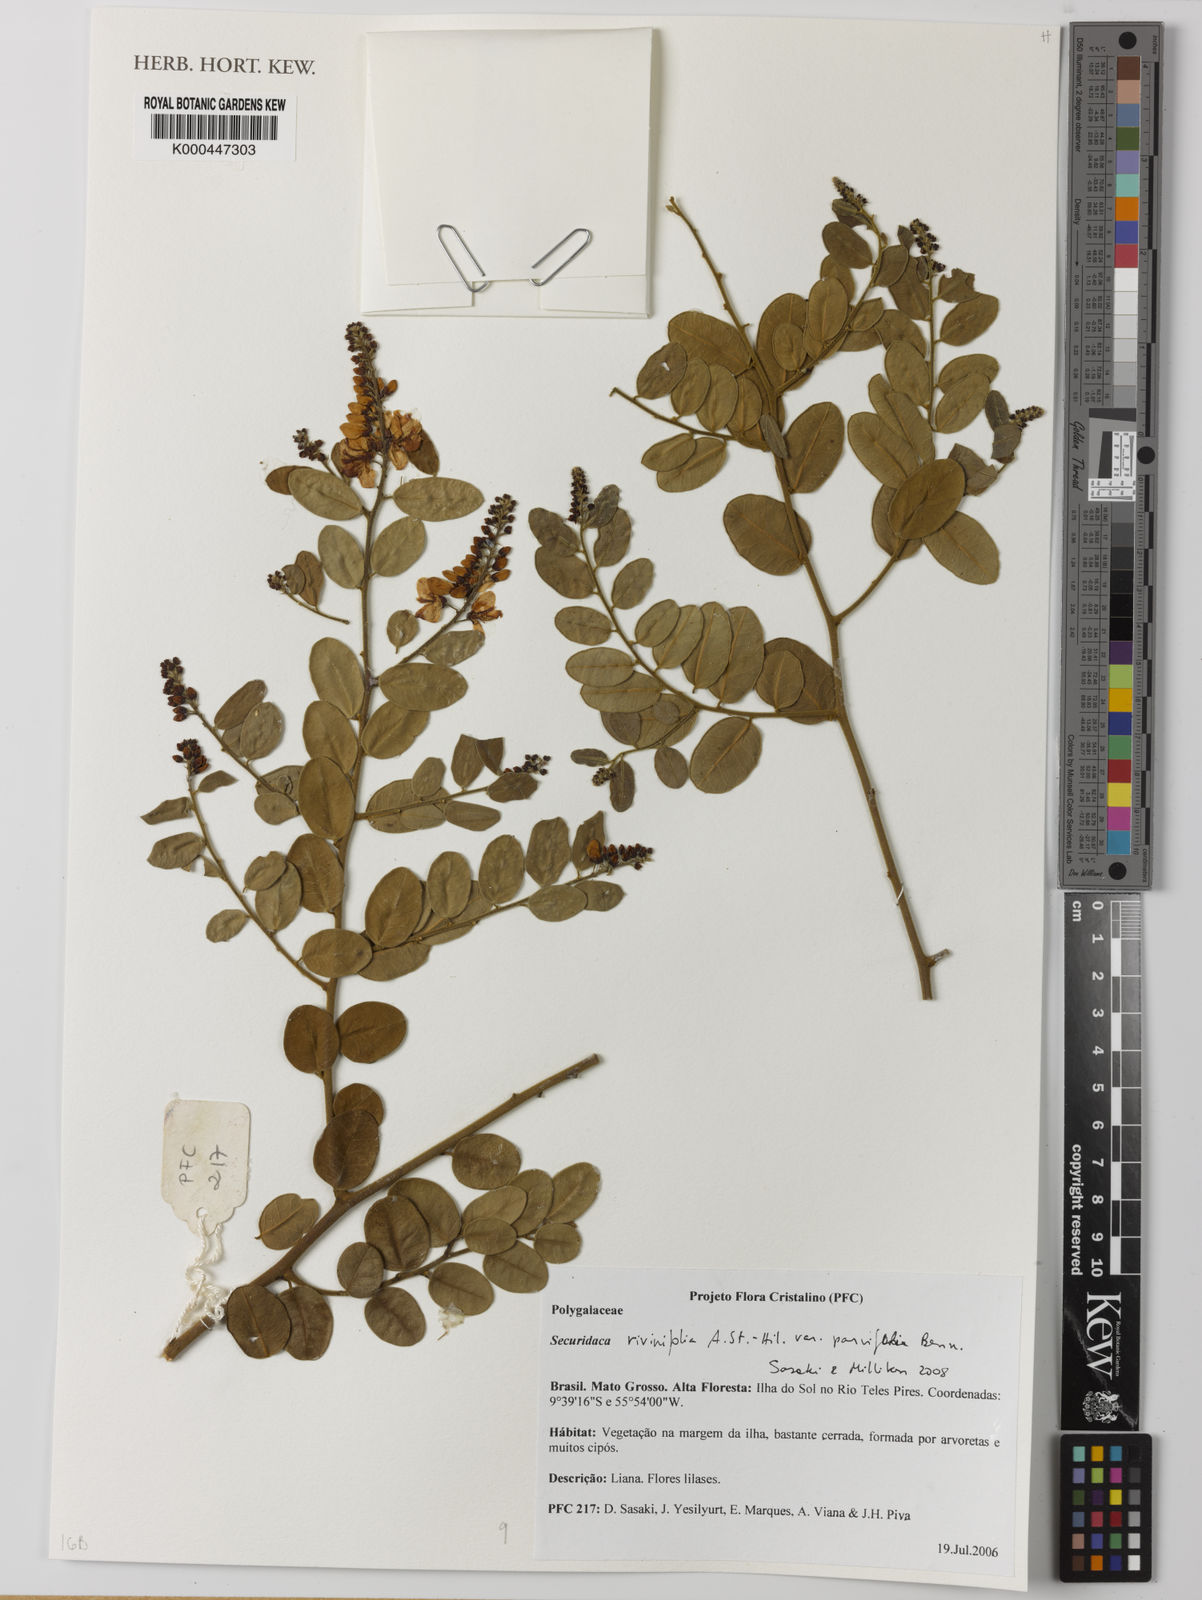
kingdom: Plantae
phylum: Tracheophyta
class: Magnoliopsida
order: Fabales
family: Polygalaceae
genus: Securidaca
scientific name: Securidaca rivinifolia
